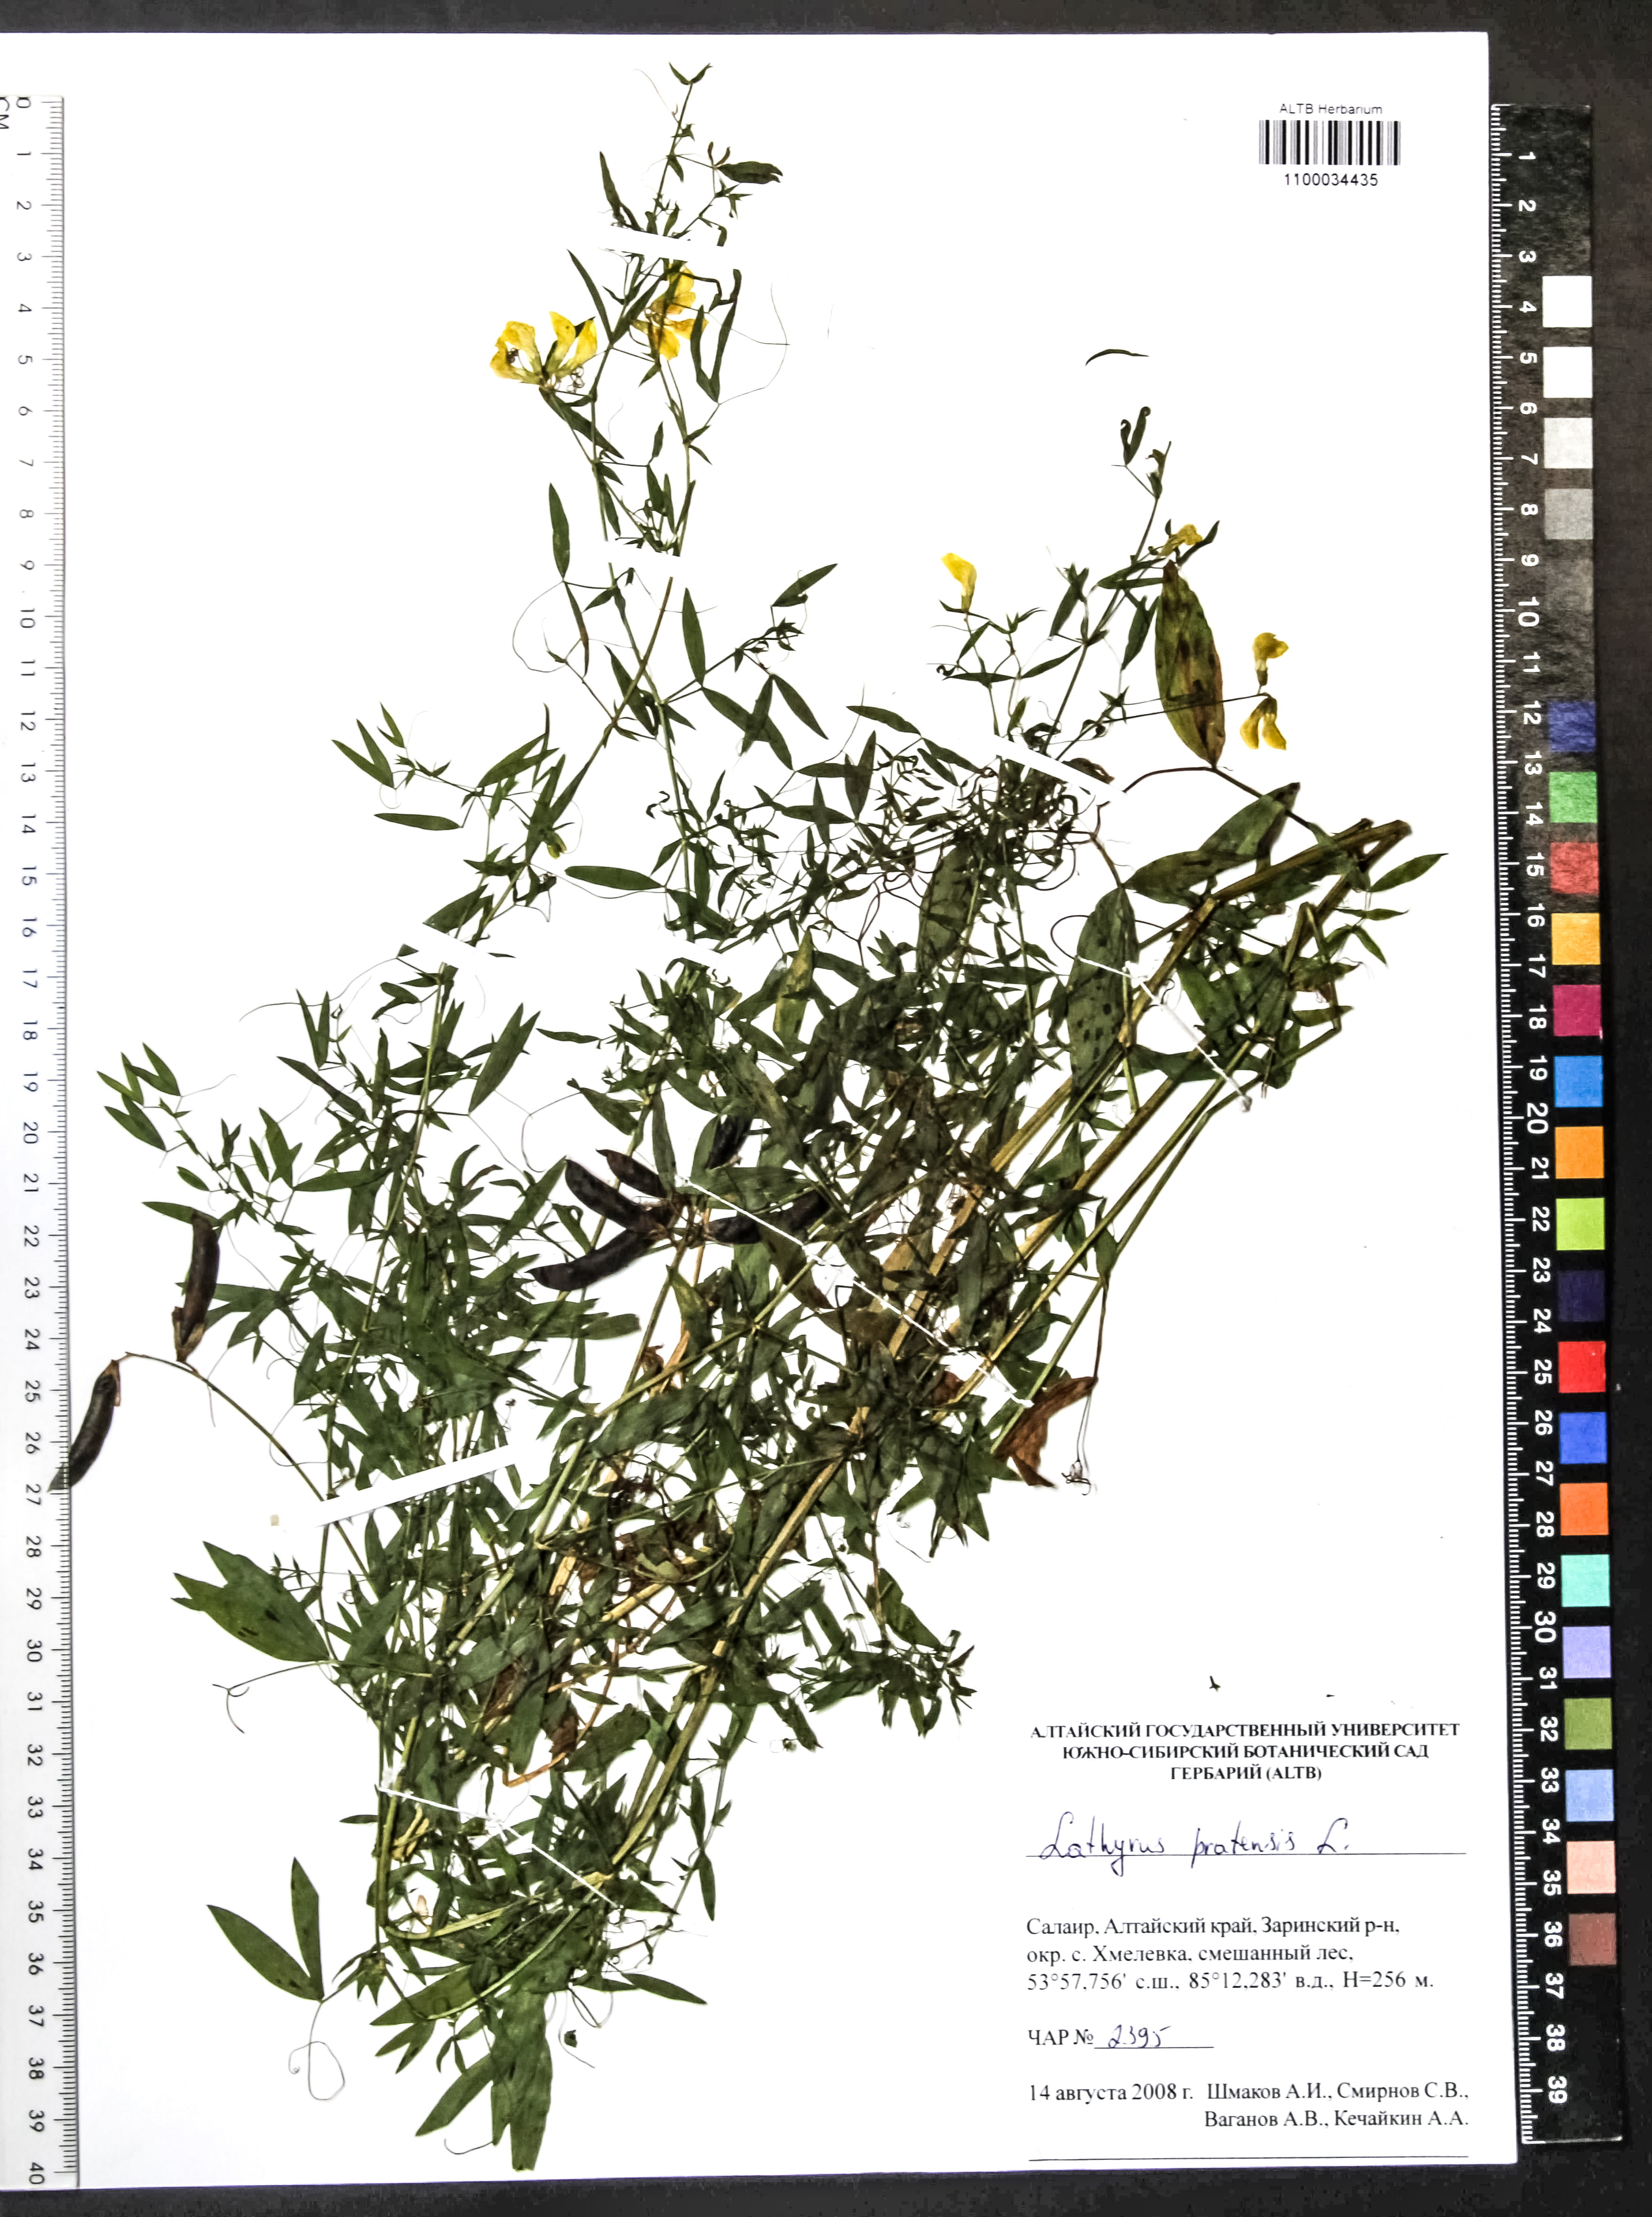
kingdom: Plantae
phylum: Tracheophyta
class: Magnoliopsida
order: Fabales
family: Fabaceae
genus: Lathyrus
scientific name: Lathyrus pratensis
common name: Meadow vetchling
